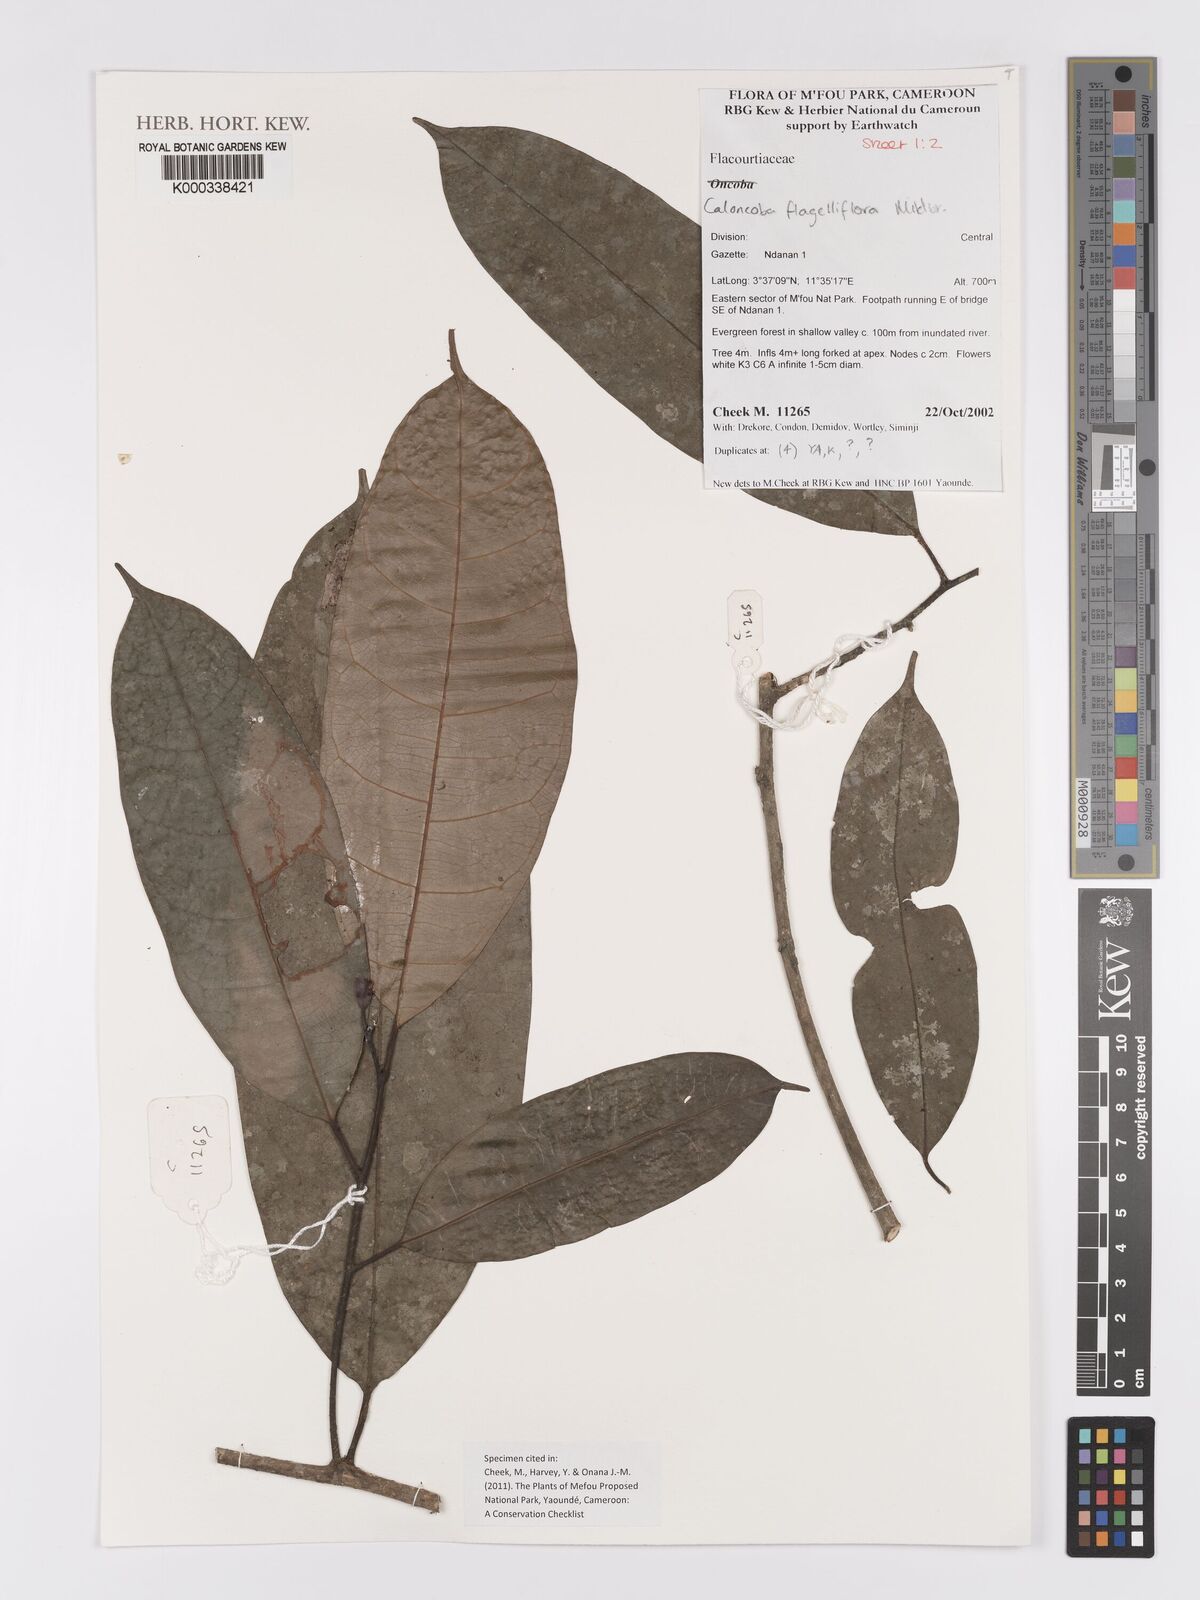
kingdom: Plantae
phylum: Tracheophyta
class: Magnoliopsida
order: Malpighiales
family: Achariaceae
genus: Caloncoba
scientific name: Caloncoba flagelliflora
